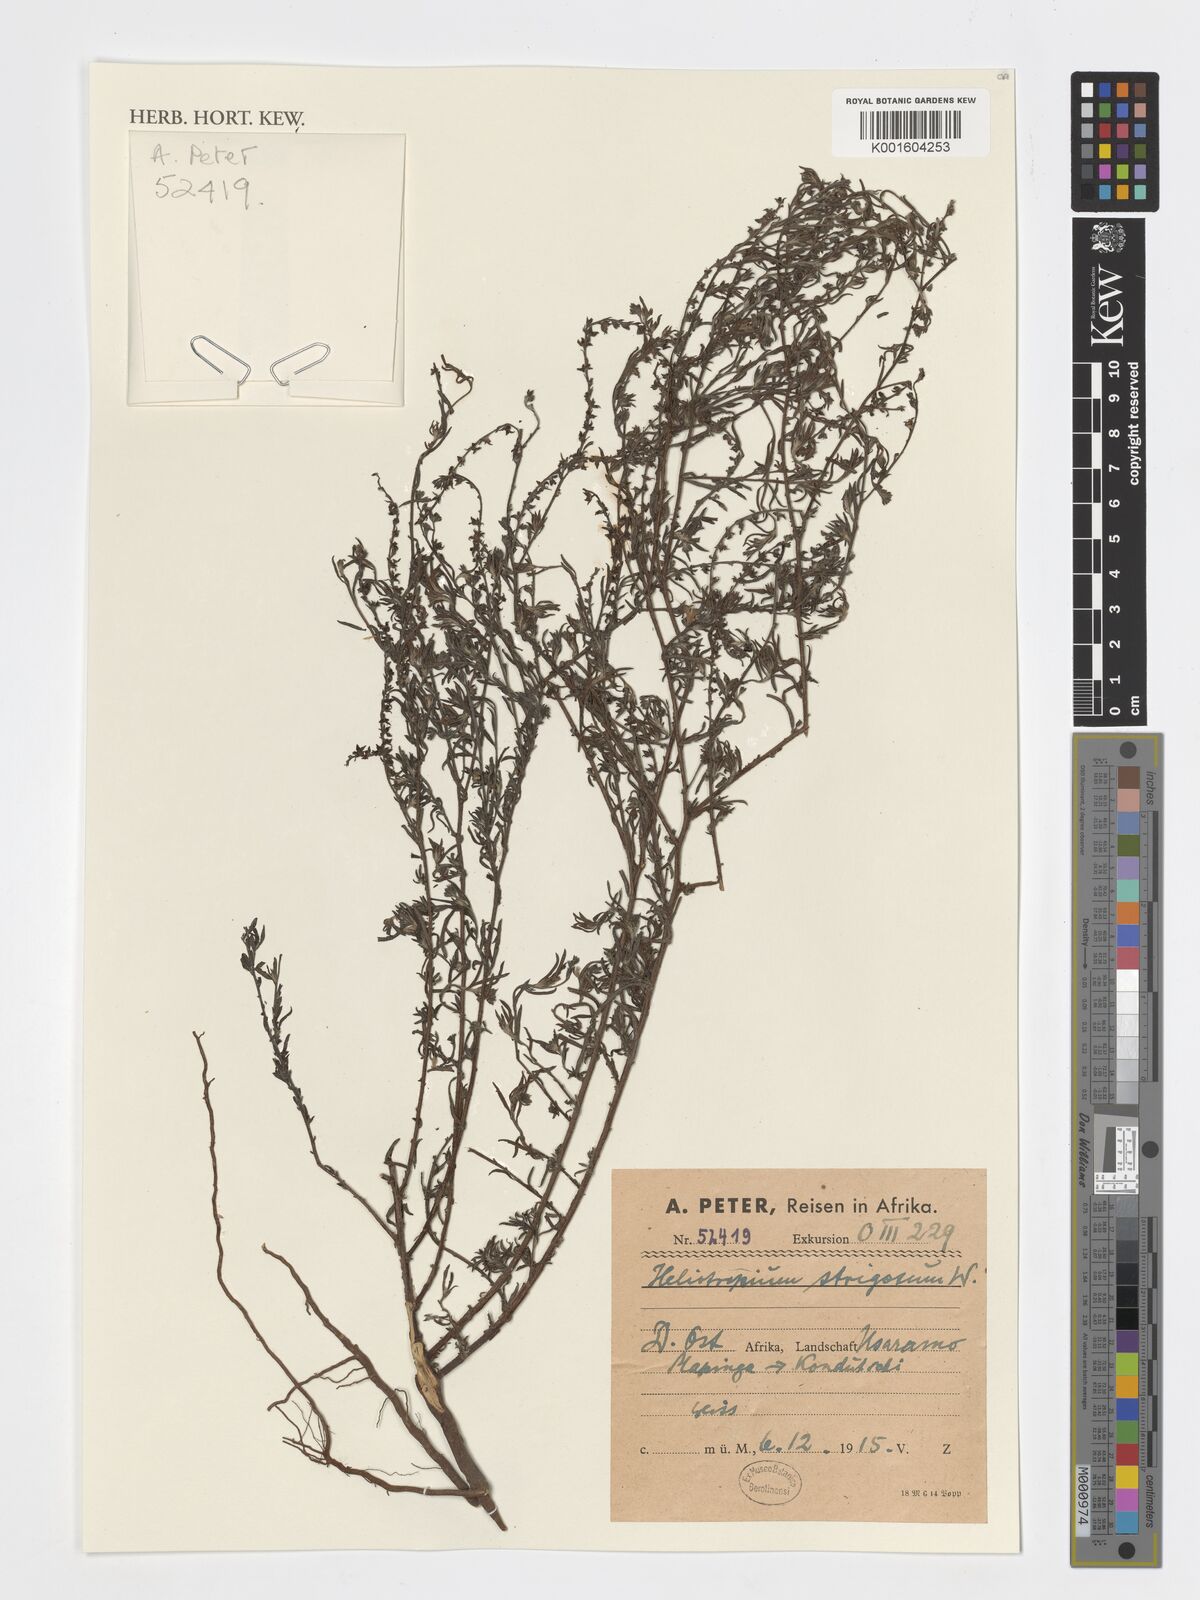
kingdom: Plantae
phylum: Tracheophyta
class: Magnoliopsida
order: Boraginales
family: Heliotropiaceae
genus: Euploca
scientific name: Euploca strigosa
